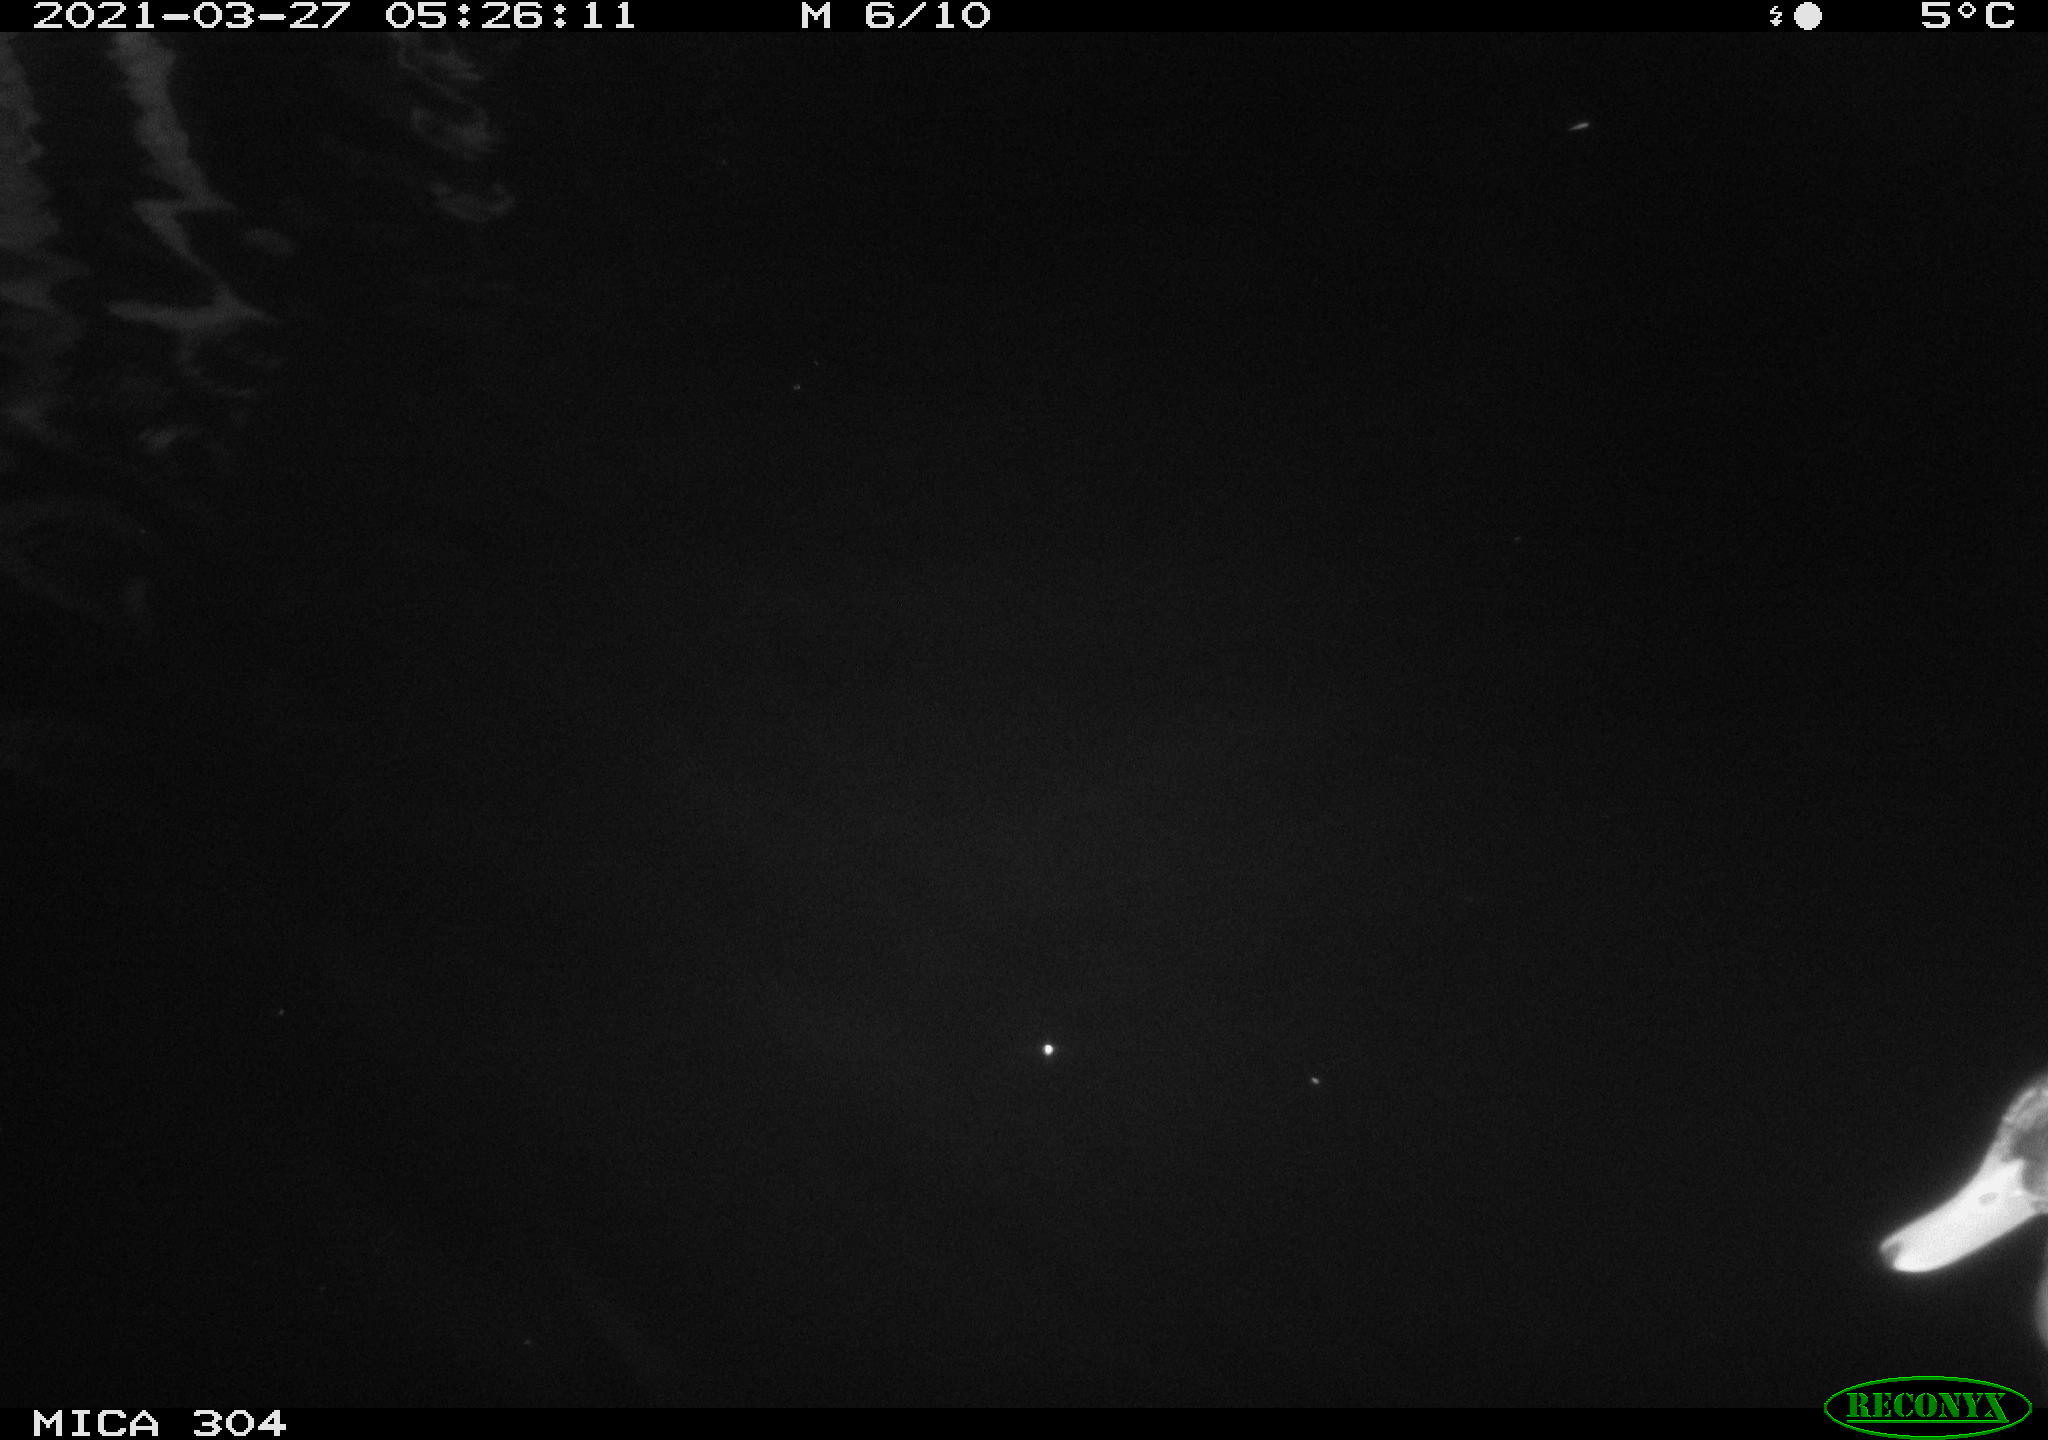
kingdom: Animalia
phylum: Chordata
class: Aves
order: Anseriformes
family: Anatidae
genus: Anas
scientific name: Anas platyrhynchos
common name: Mallard
